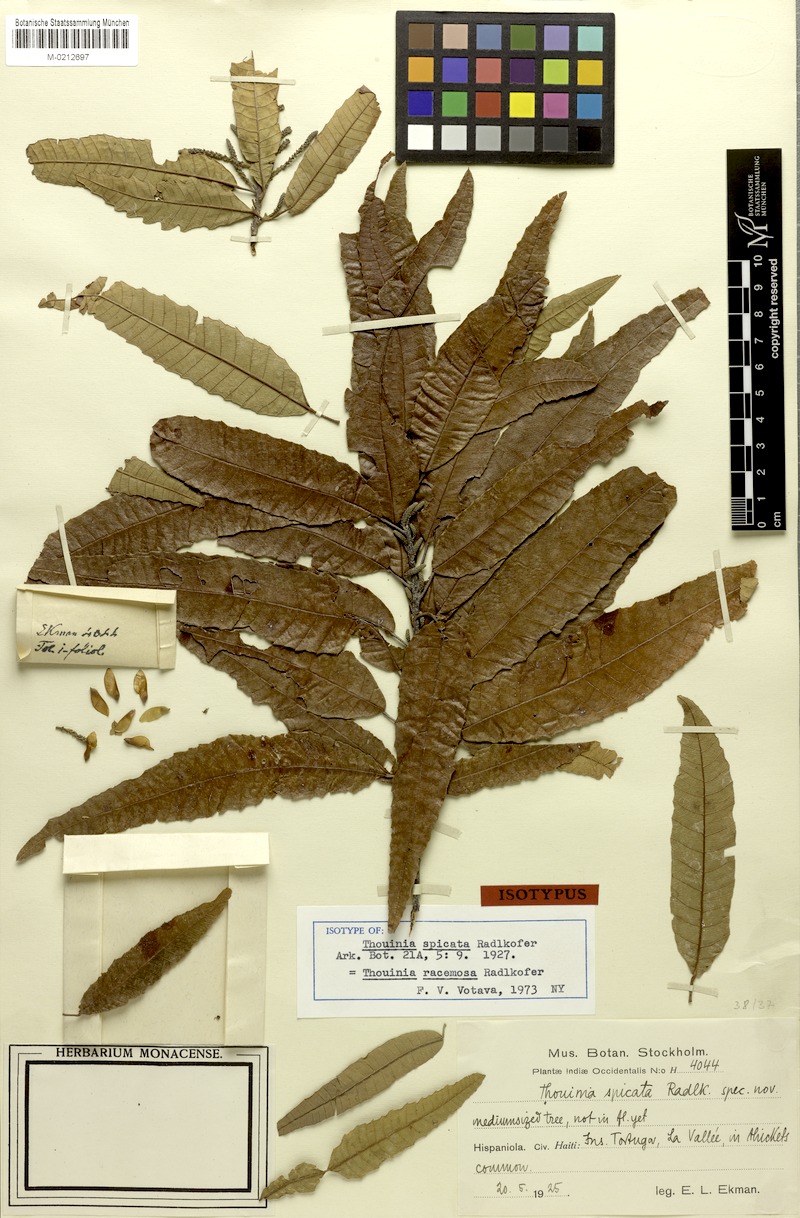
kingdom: Plantae
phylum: Tracheophyta
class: Magnoliopsida
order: Sapindales
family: Sapindaceae
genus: Thouinia
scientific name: Thouinia racemosa
